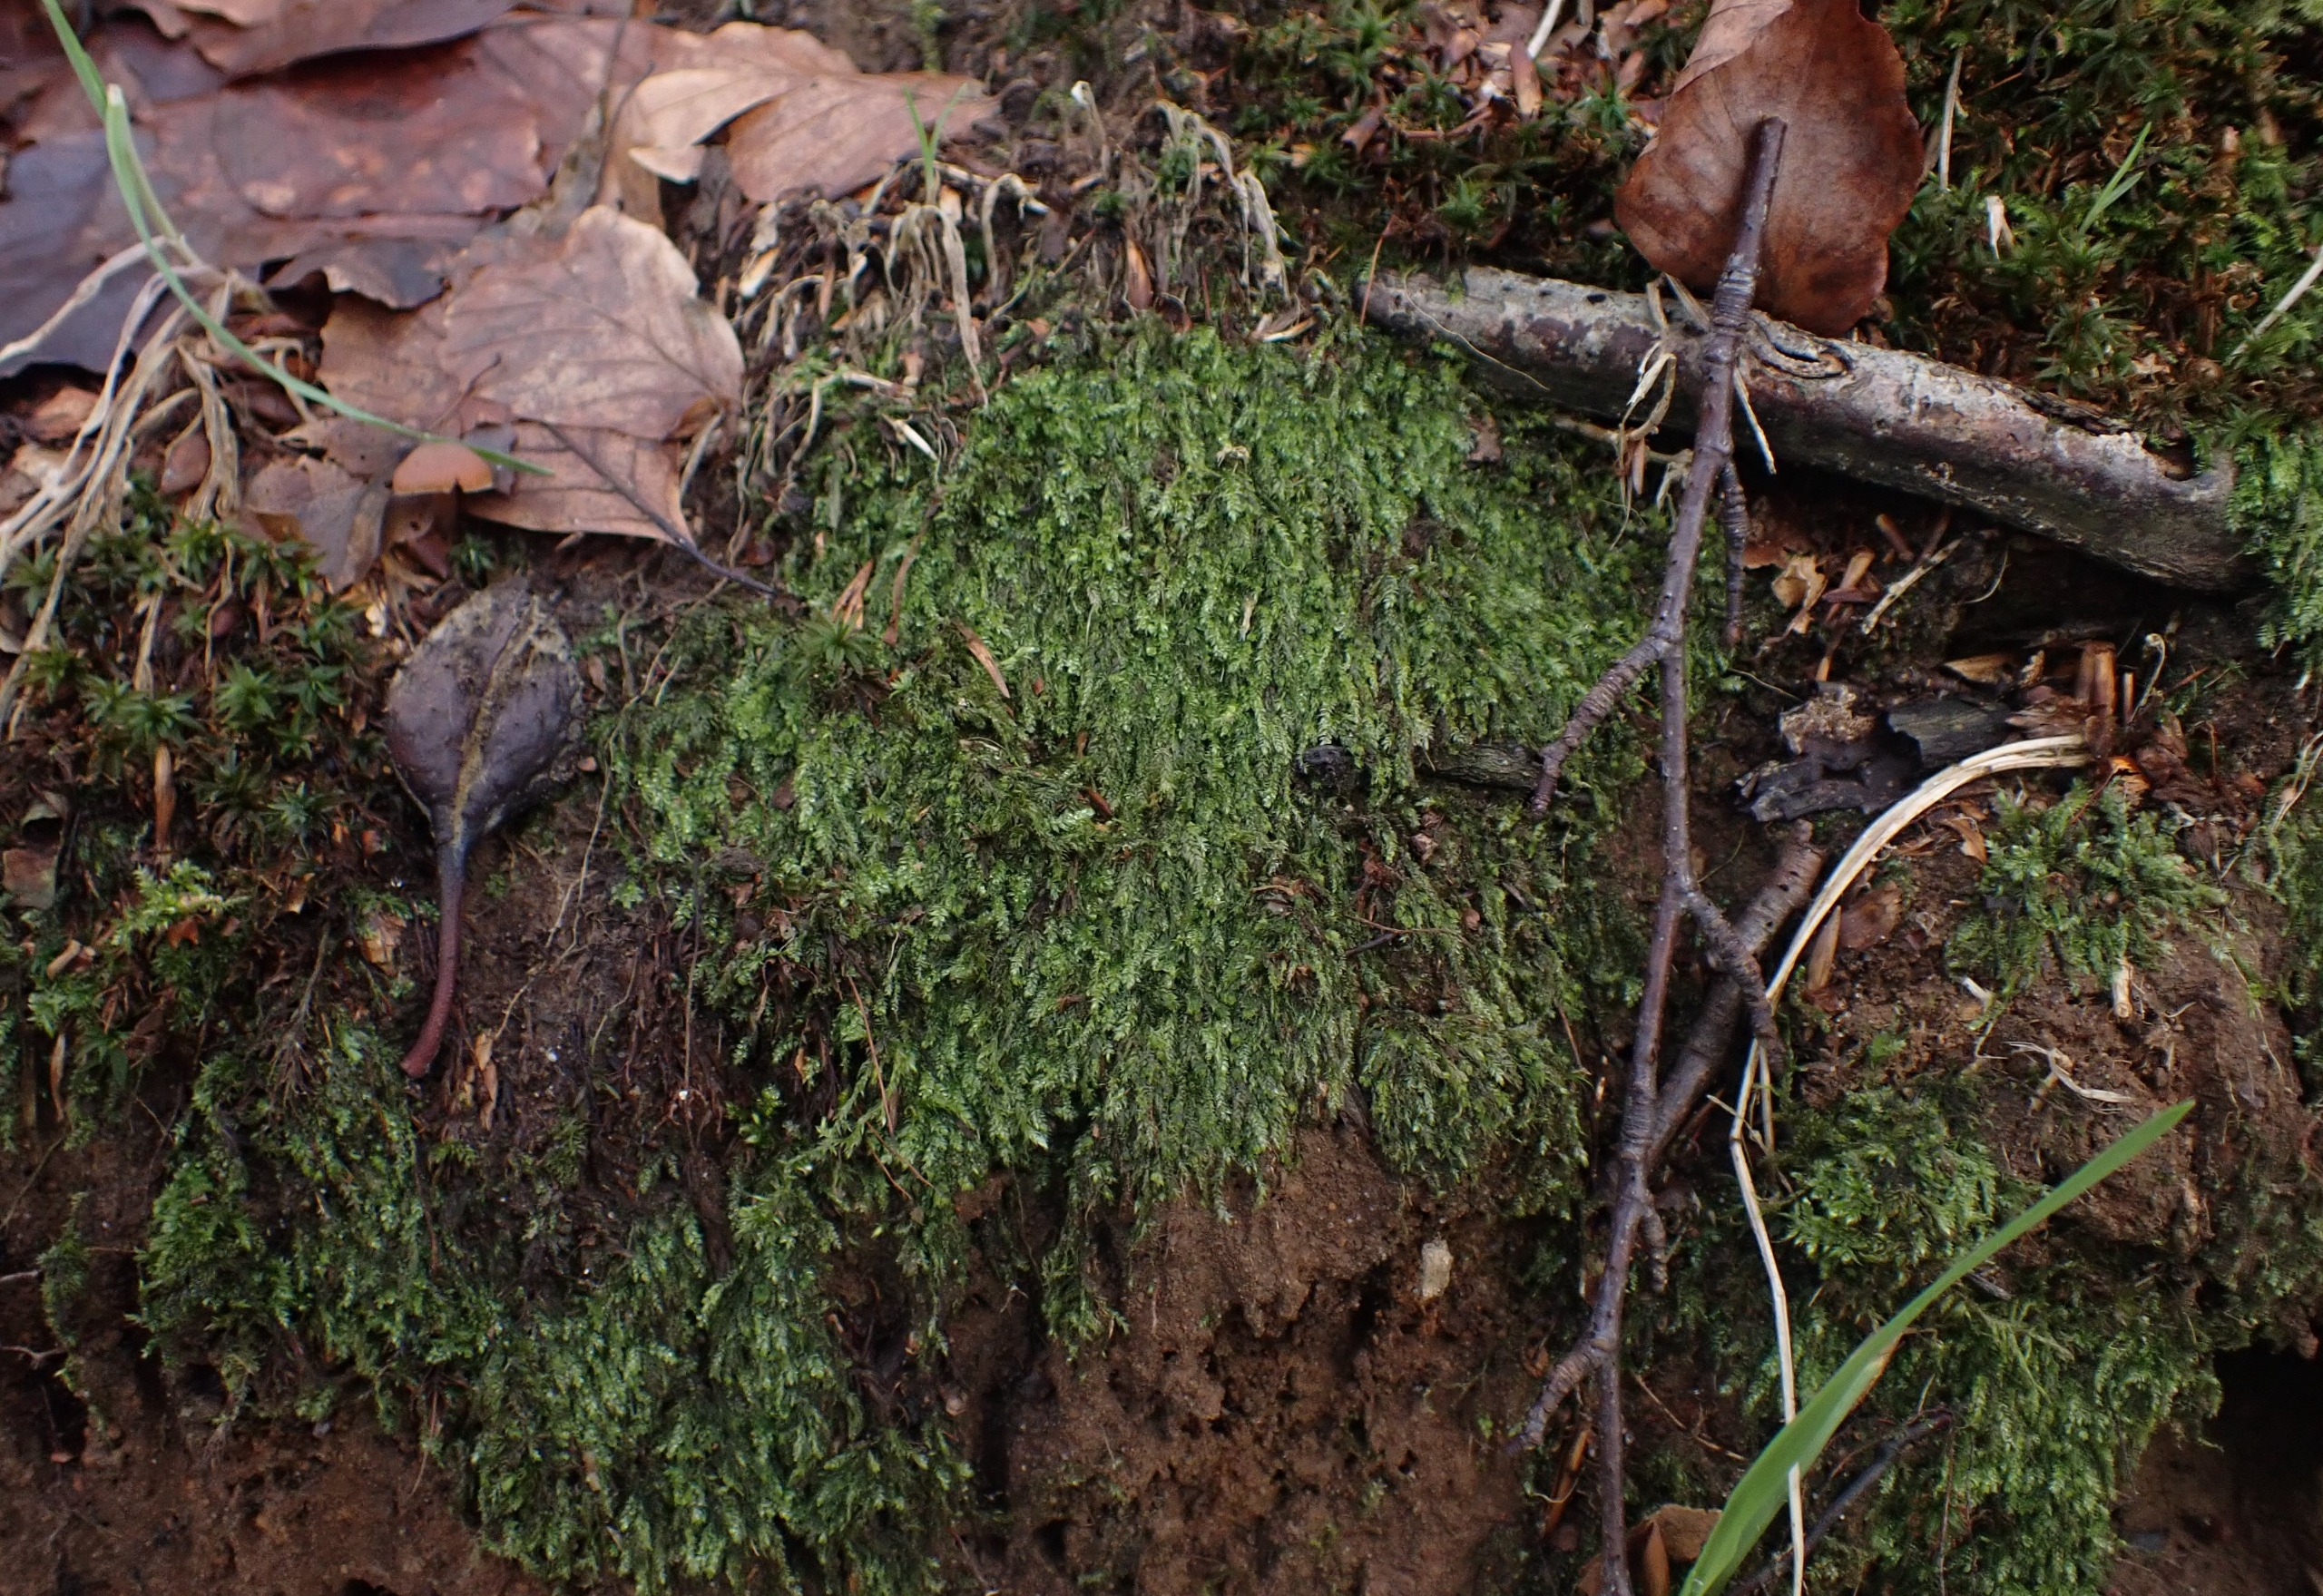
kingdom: Plantae
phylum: Bryophyta
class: Bryopsida
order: Hypnales
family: Plagiotheciaceae
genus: Pseudotaxiphyllum
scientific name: Pseudotaxiphyllum elegans
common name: Skinnende ynglegren
